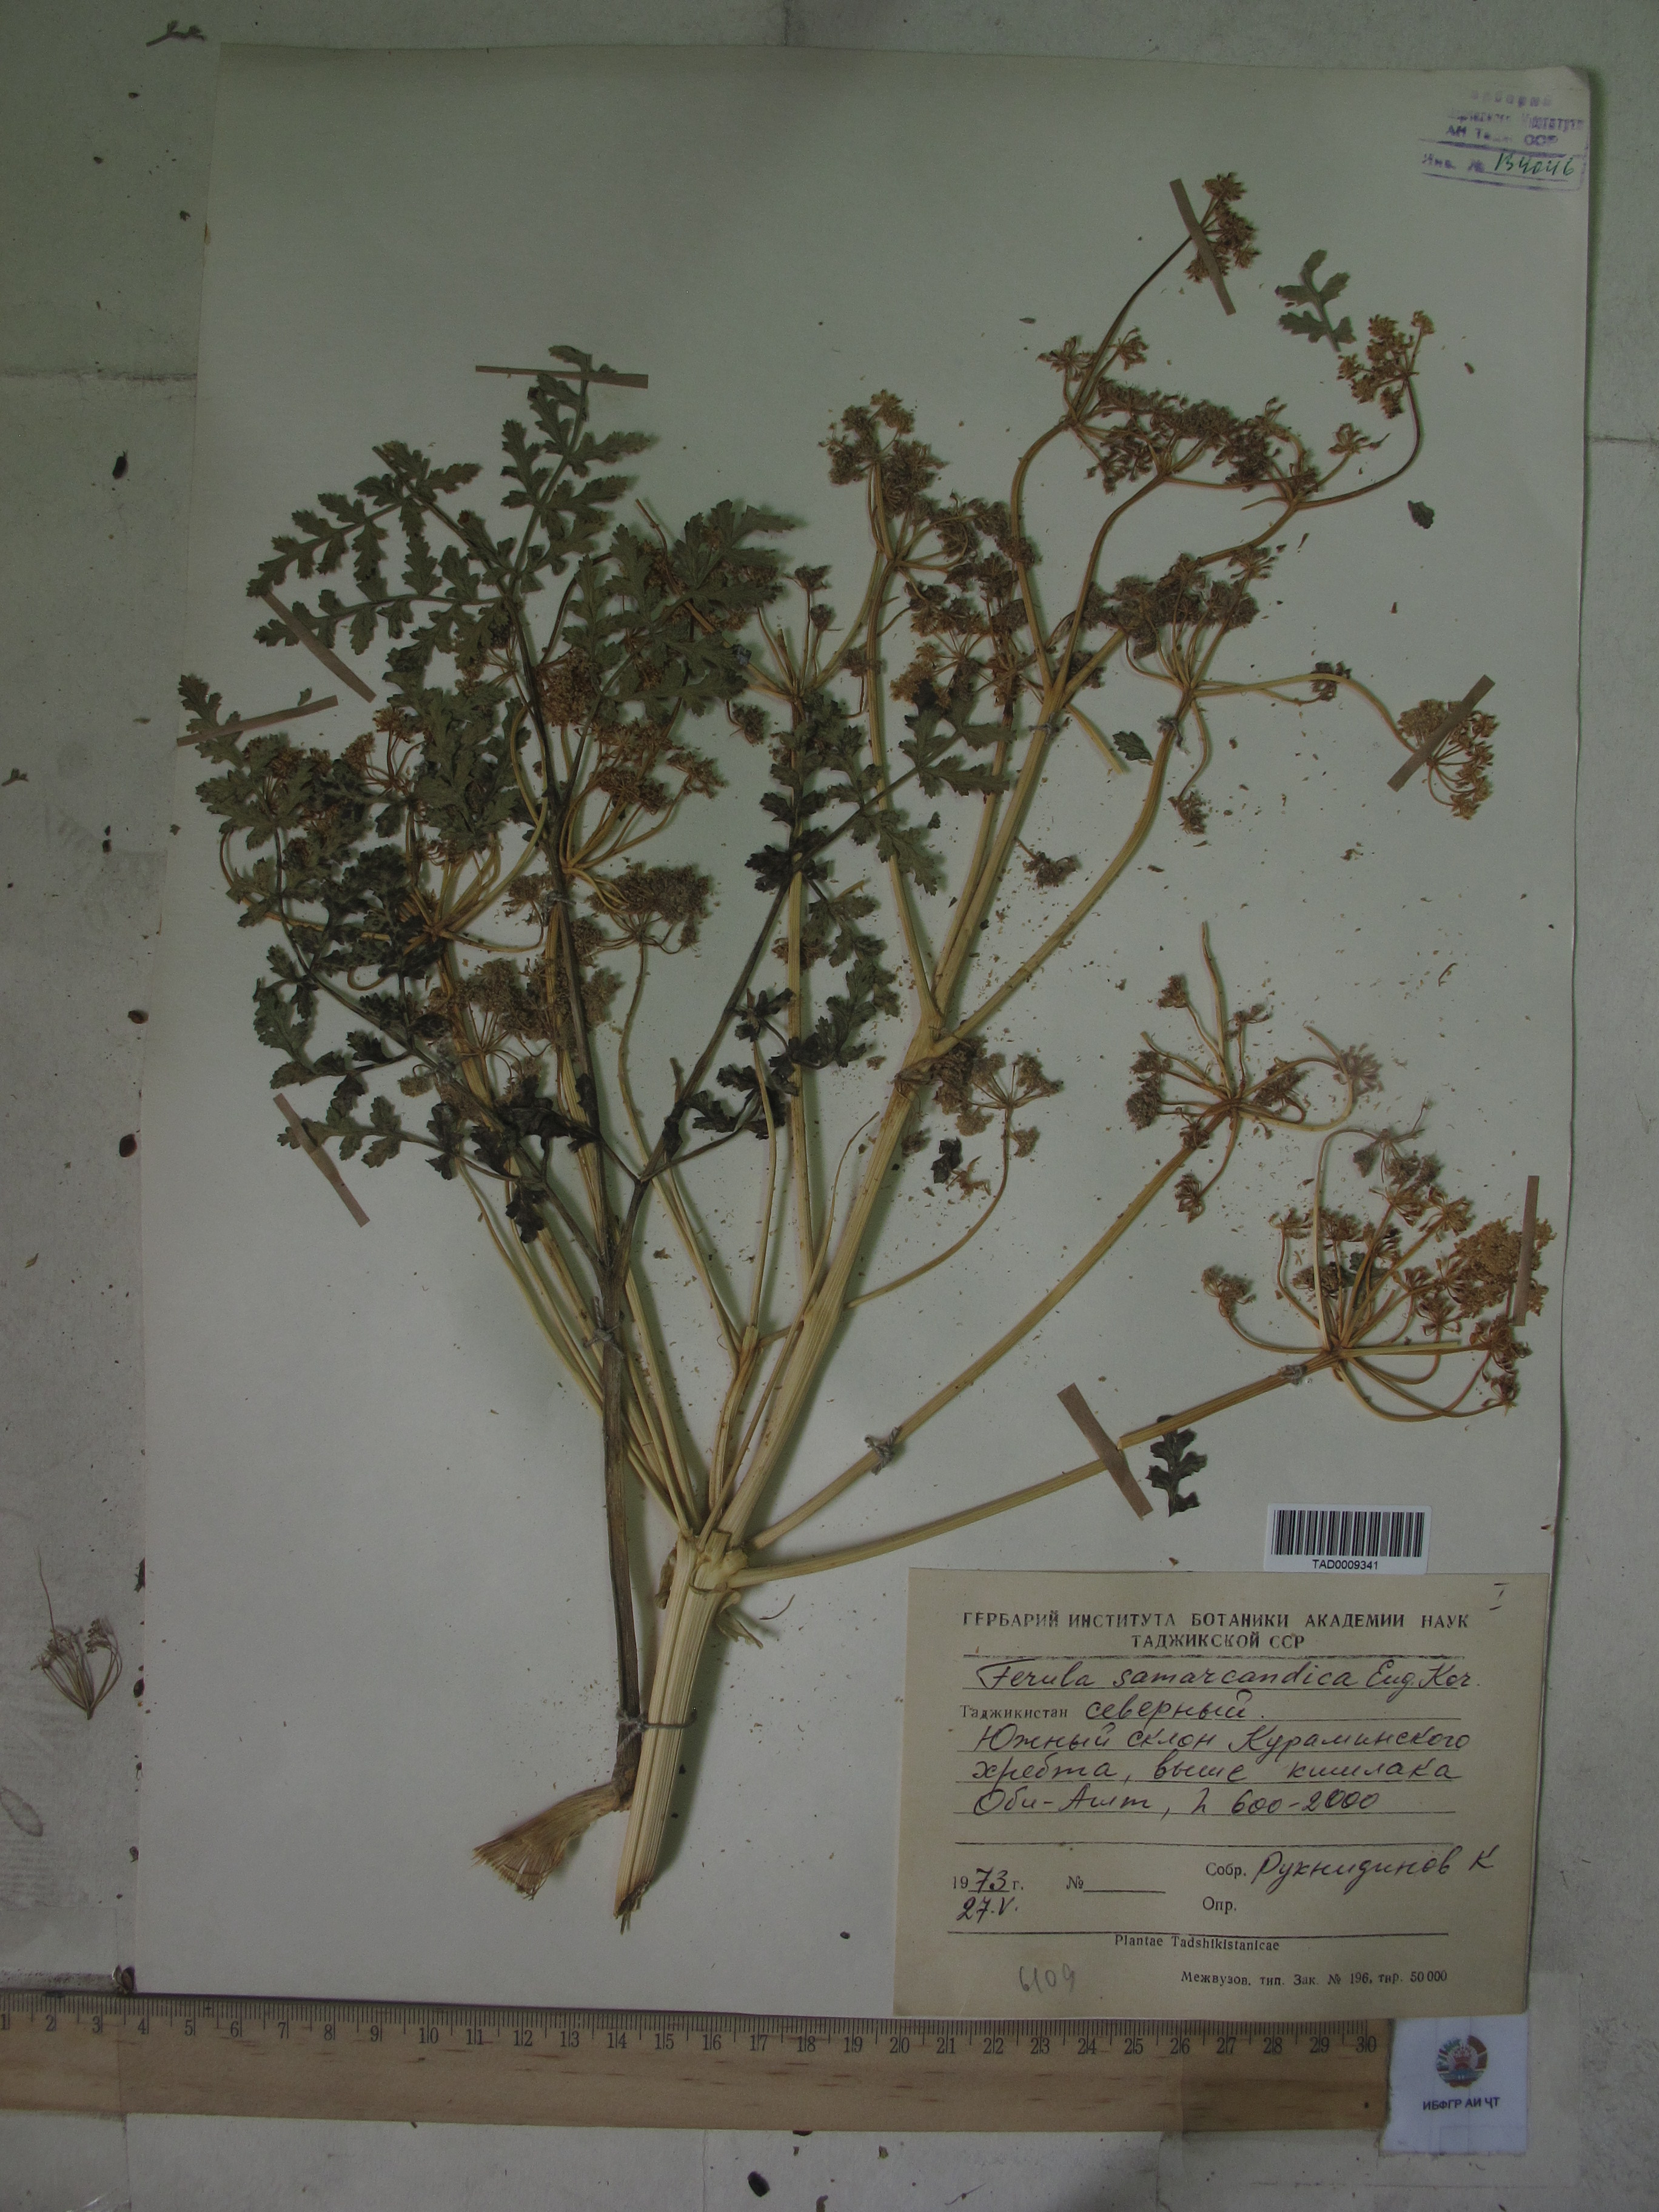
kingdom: Plantae
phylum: Tracheophyta
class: Magnoliopsida
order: Apiales
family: Apiaceae
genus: Ferula
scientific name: Ferula samarkandica
